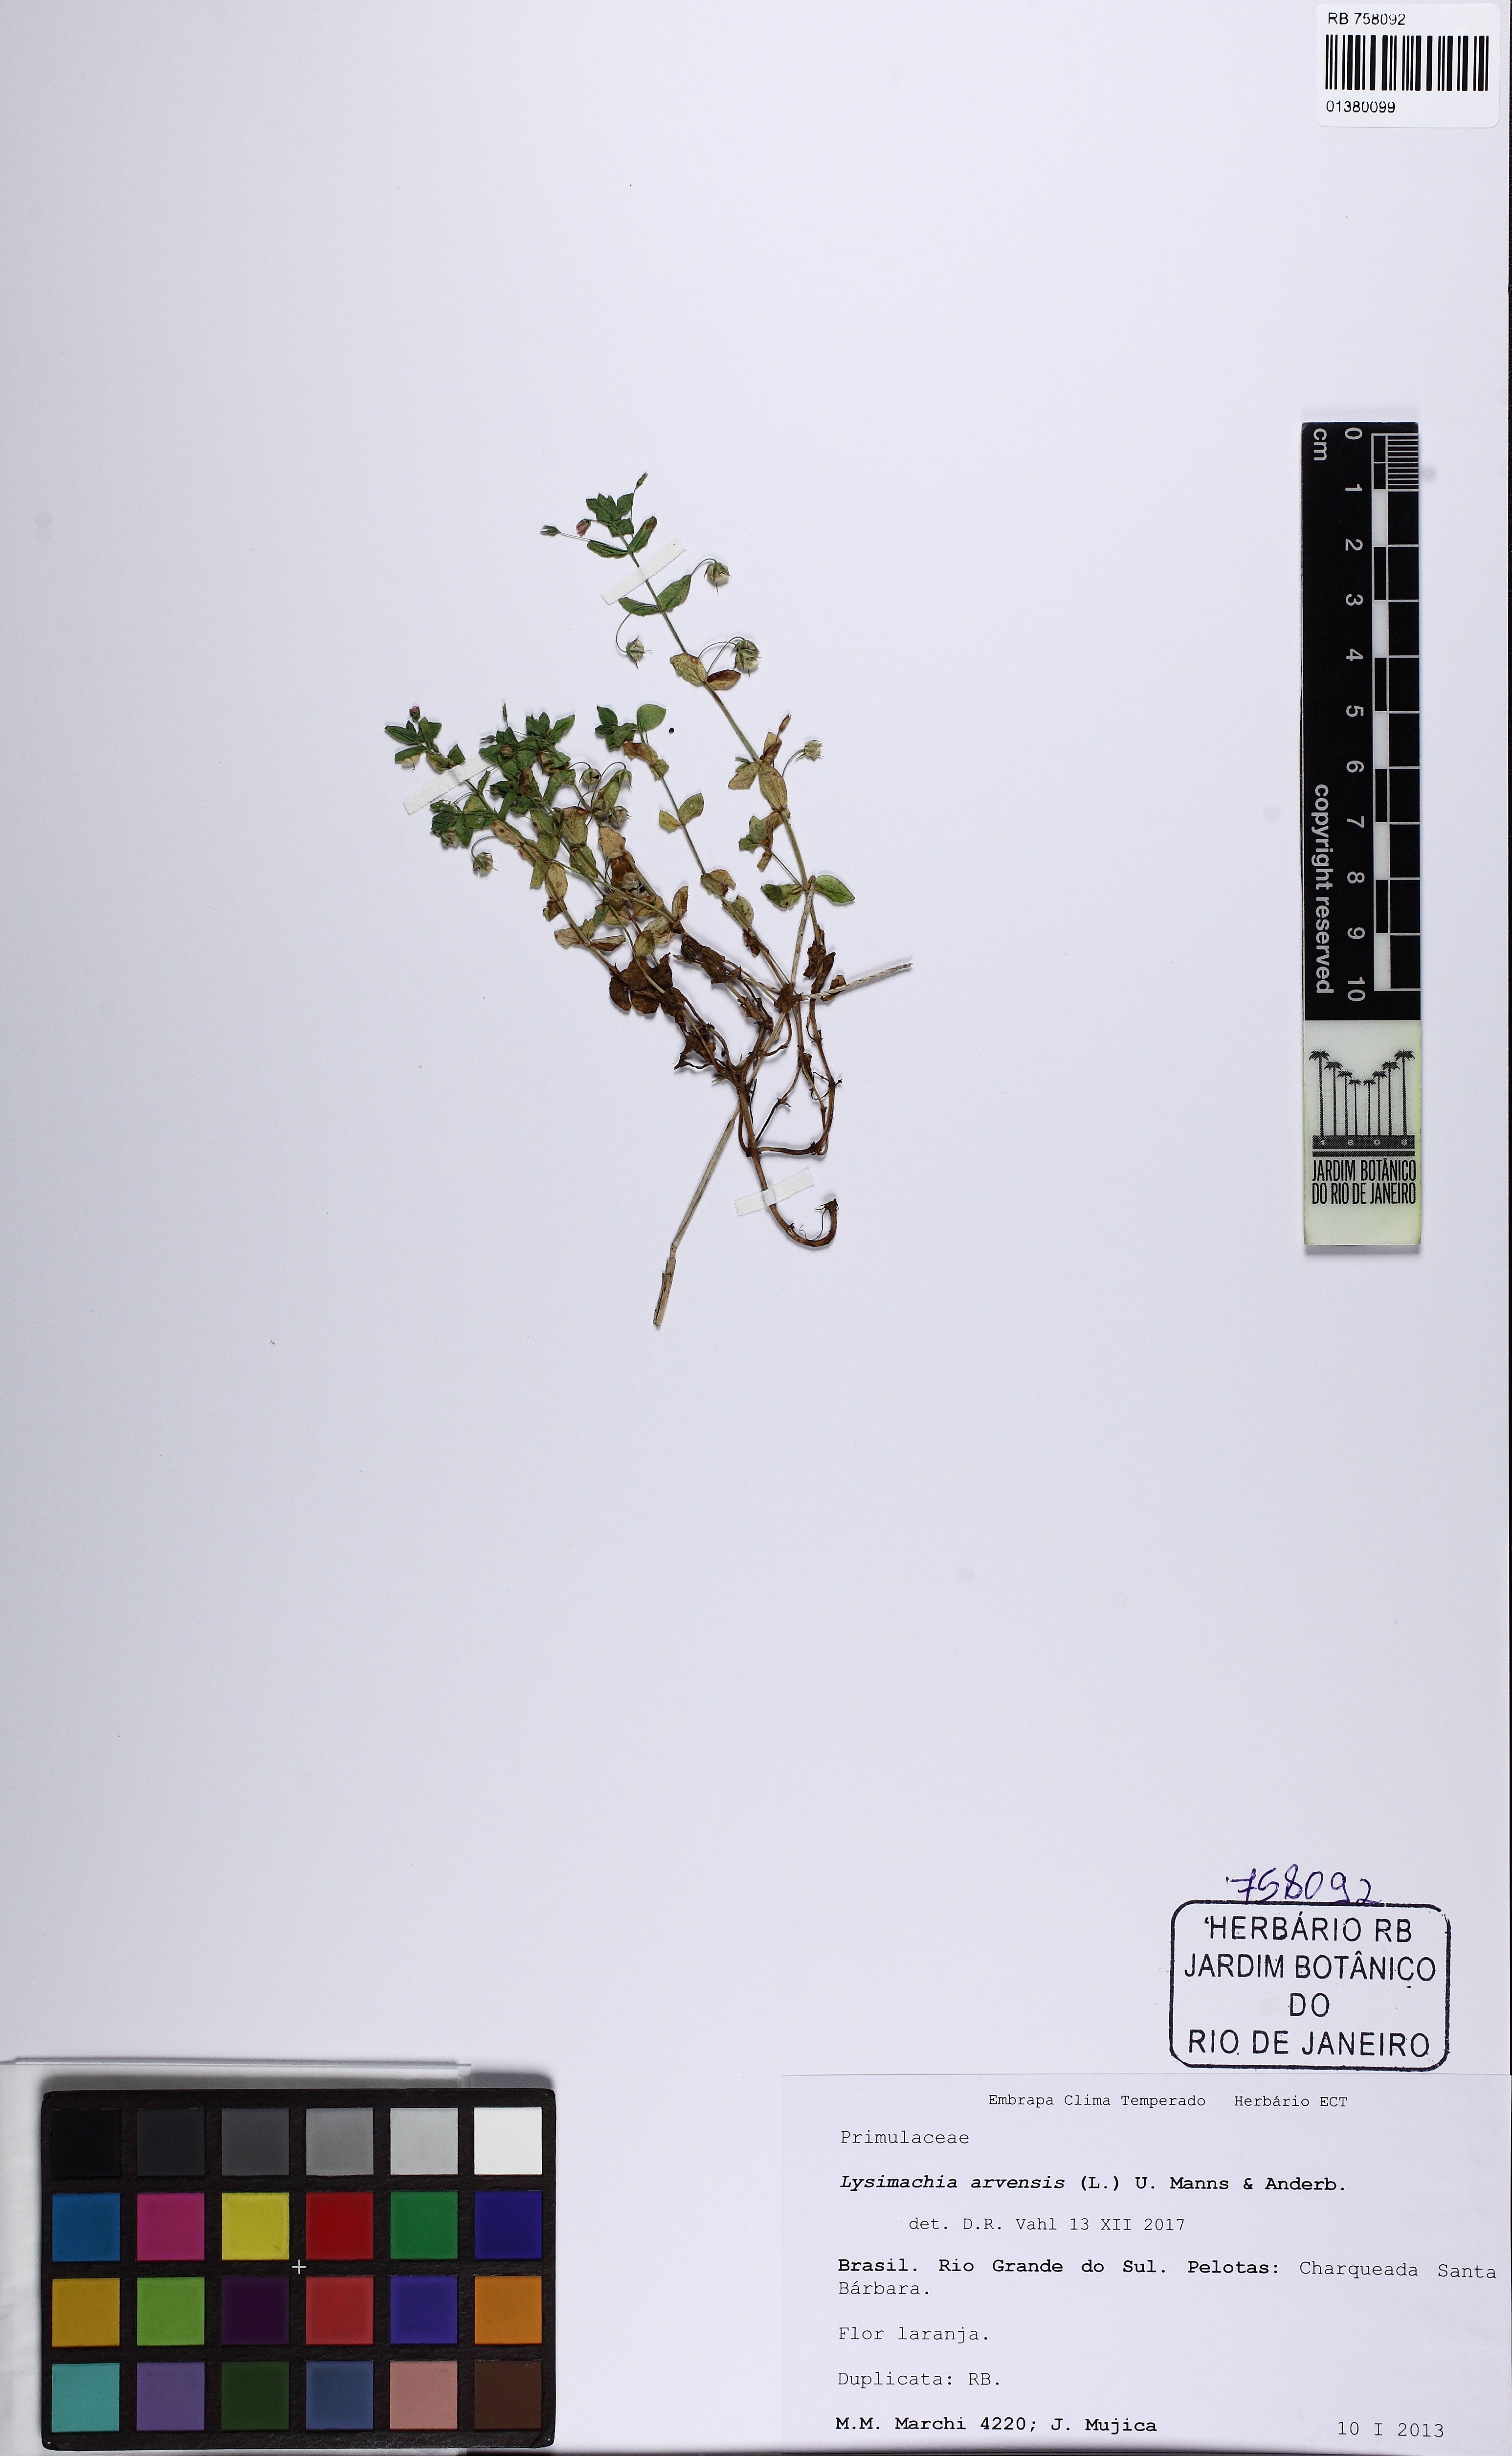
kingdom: Plantae
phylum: Tracheophyta
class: Magnoliopsida
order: Ericales
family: Primulaceae
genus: Lysimachia
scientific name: Lysimachia arvensis
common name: Scarlet pimpernel
